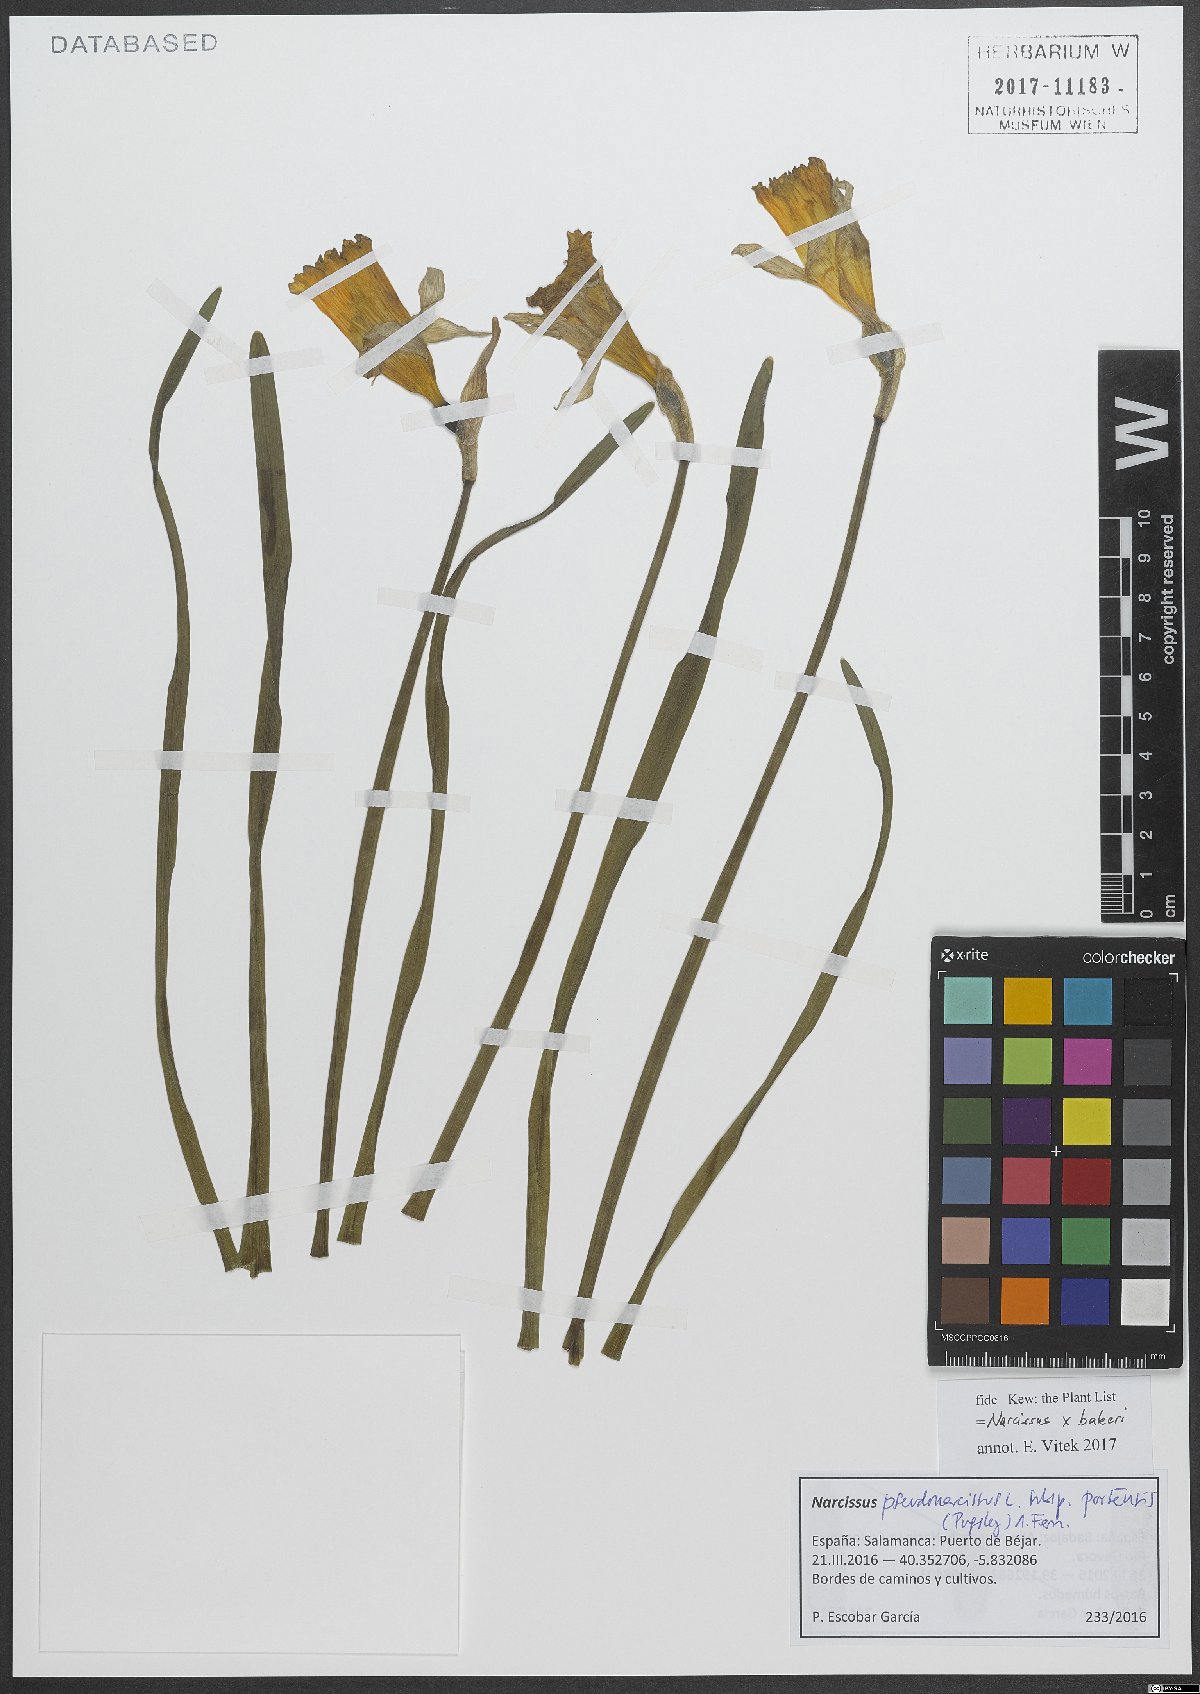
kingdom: Plantae
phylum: Tracheophyta
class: Liliopsida
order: Asparagales
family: Amaryllidaceae
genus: Narcissus
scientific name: Narcissus bakeri
